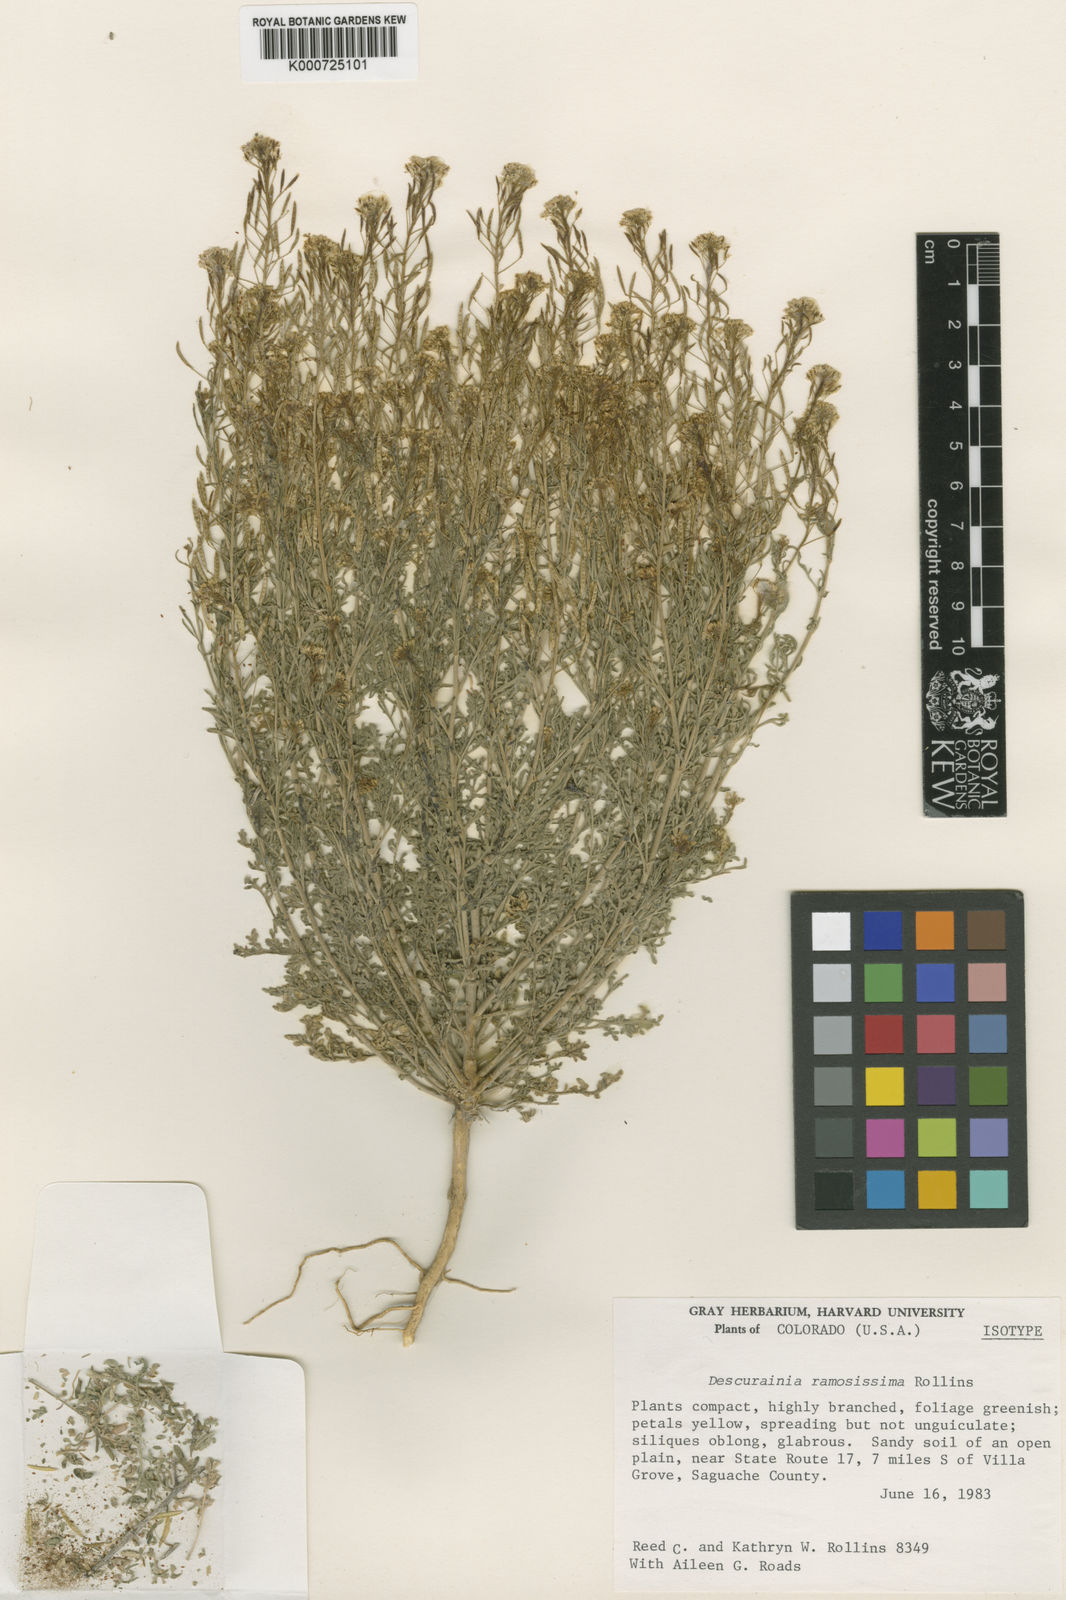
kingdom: Plantae
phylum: Tracheophyta
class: Magnoliopsida
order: Brassicales
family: Brassicaceae
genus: Descurainia
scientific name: Descurainia pinnata
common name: Western tansy mustard
